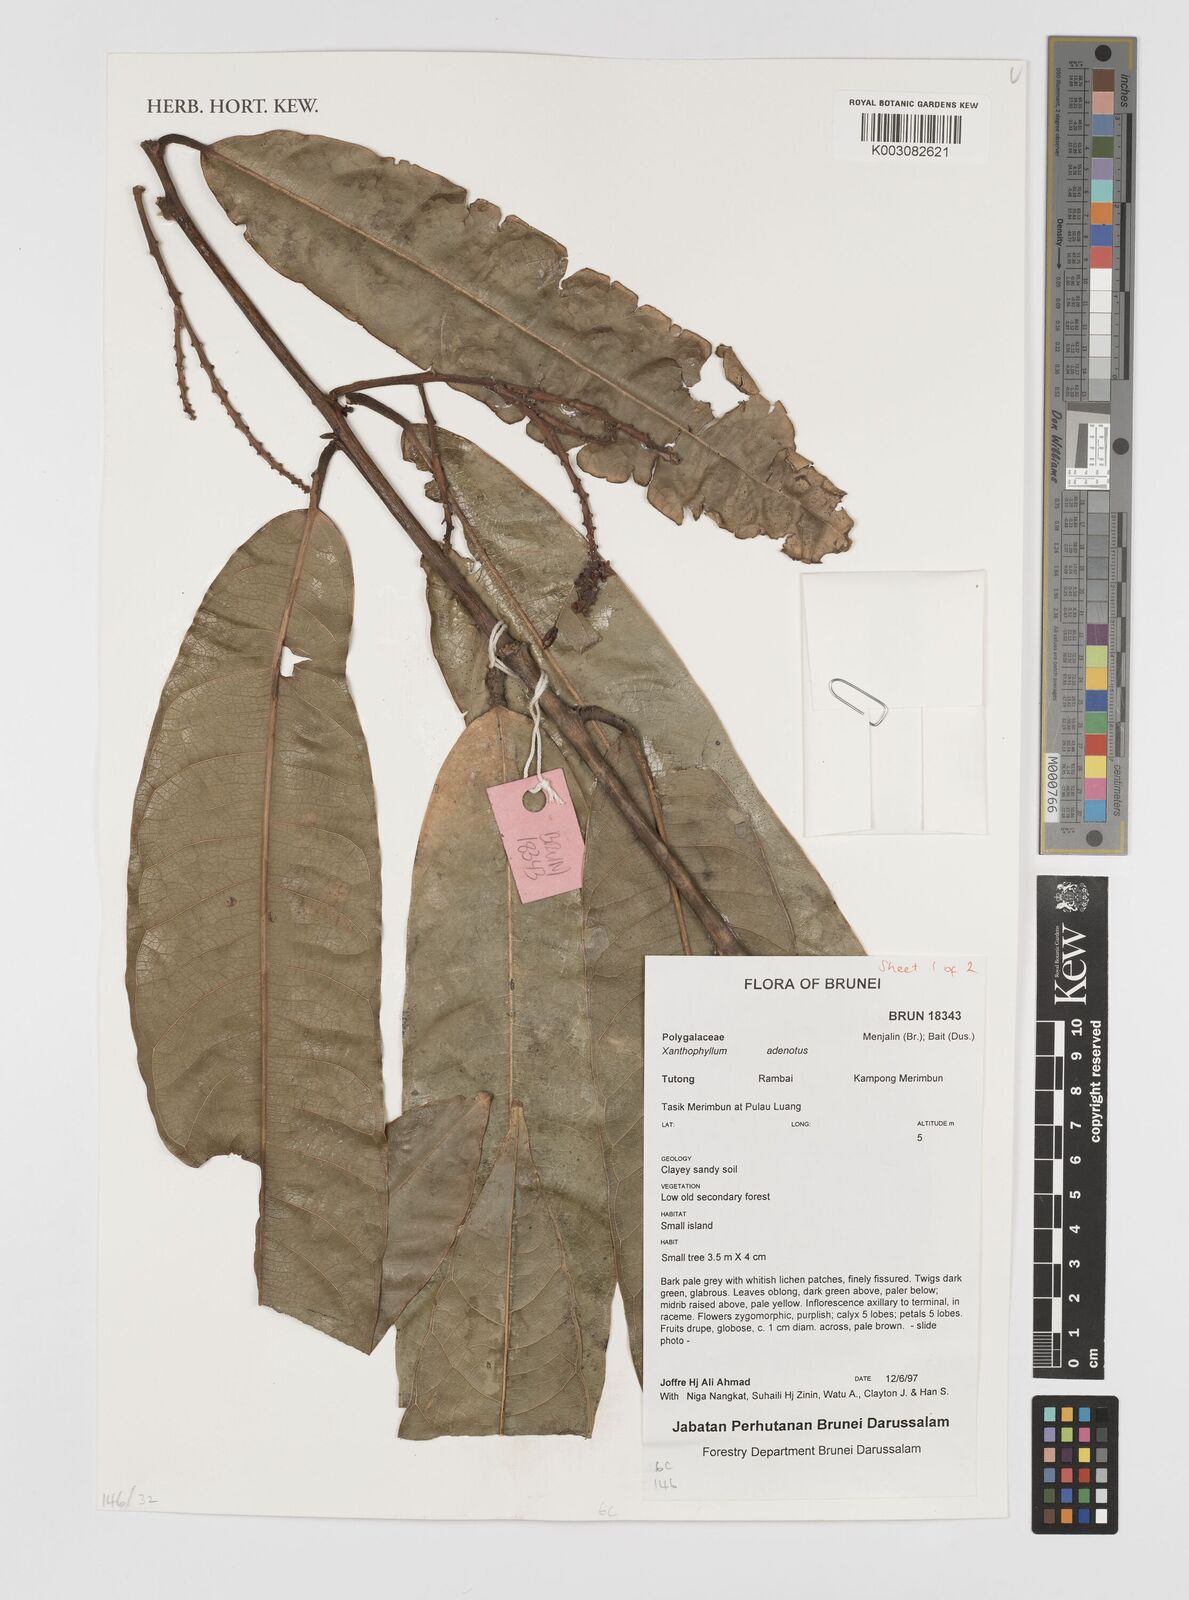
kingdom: Plantae
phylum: Tracheophyta
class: Magnoliopsida
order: Fabales
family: Polygalaceae
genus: Xanthophyllum
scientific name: Xanthophyllum adenotus
